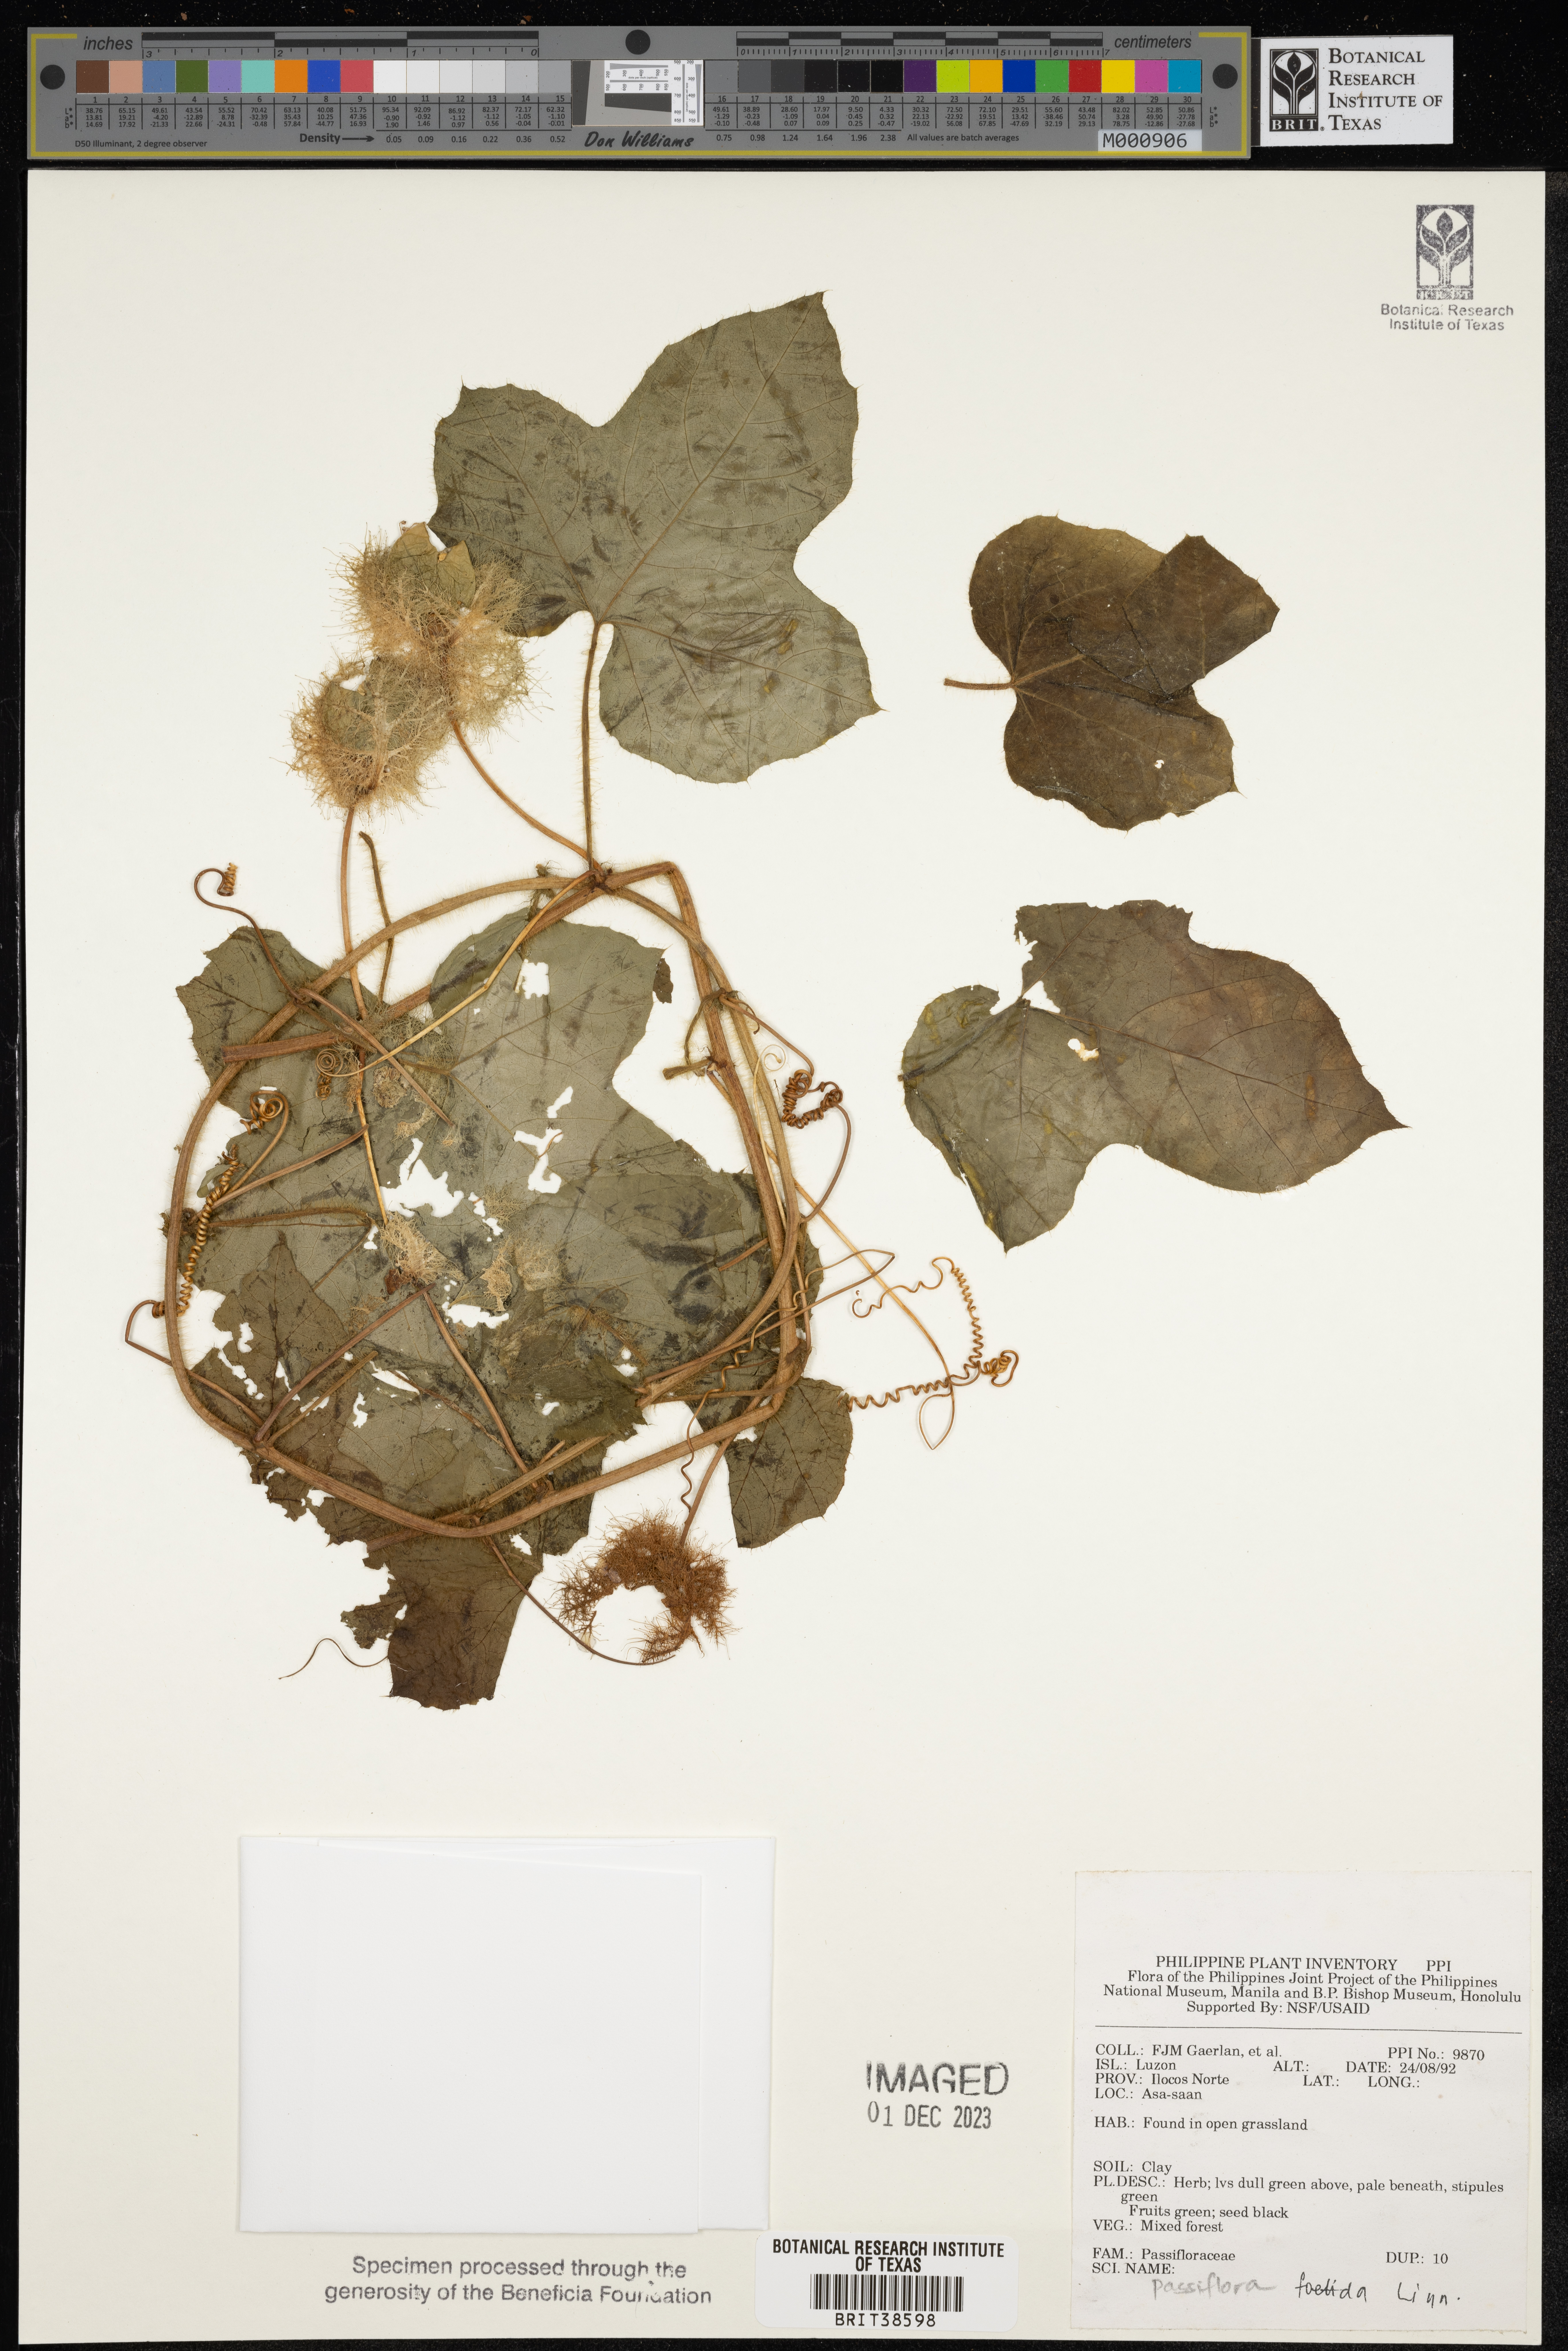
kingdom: Plantae
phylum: Tracheophyta
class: Magnoliopsida
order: Malpighiales
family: Passifloraceae
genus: Passiflora
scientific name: Passiflora foetida
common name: Fetid passionflower
